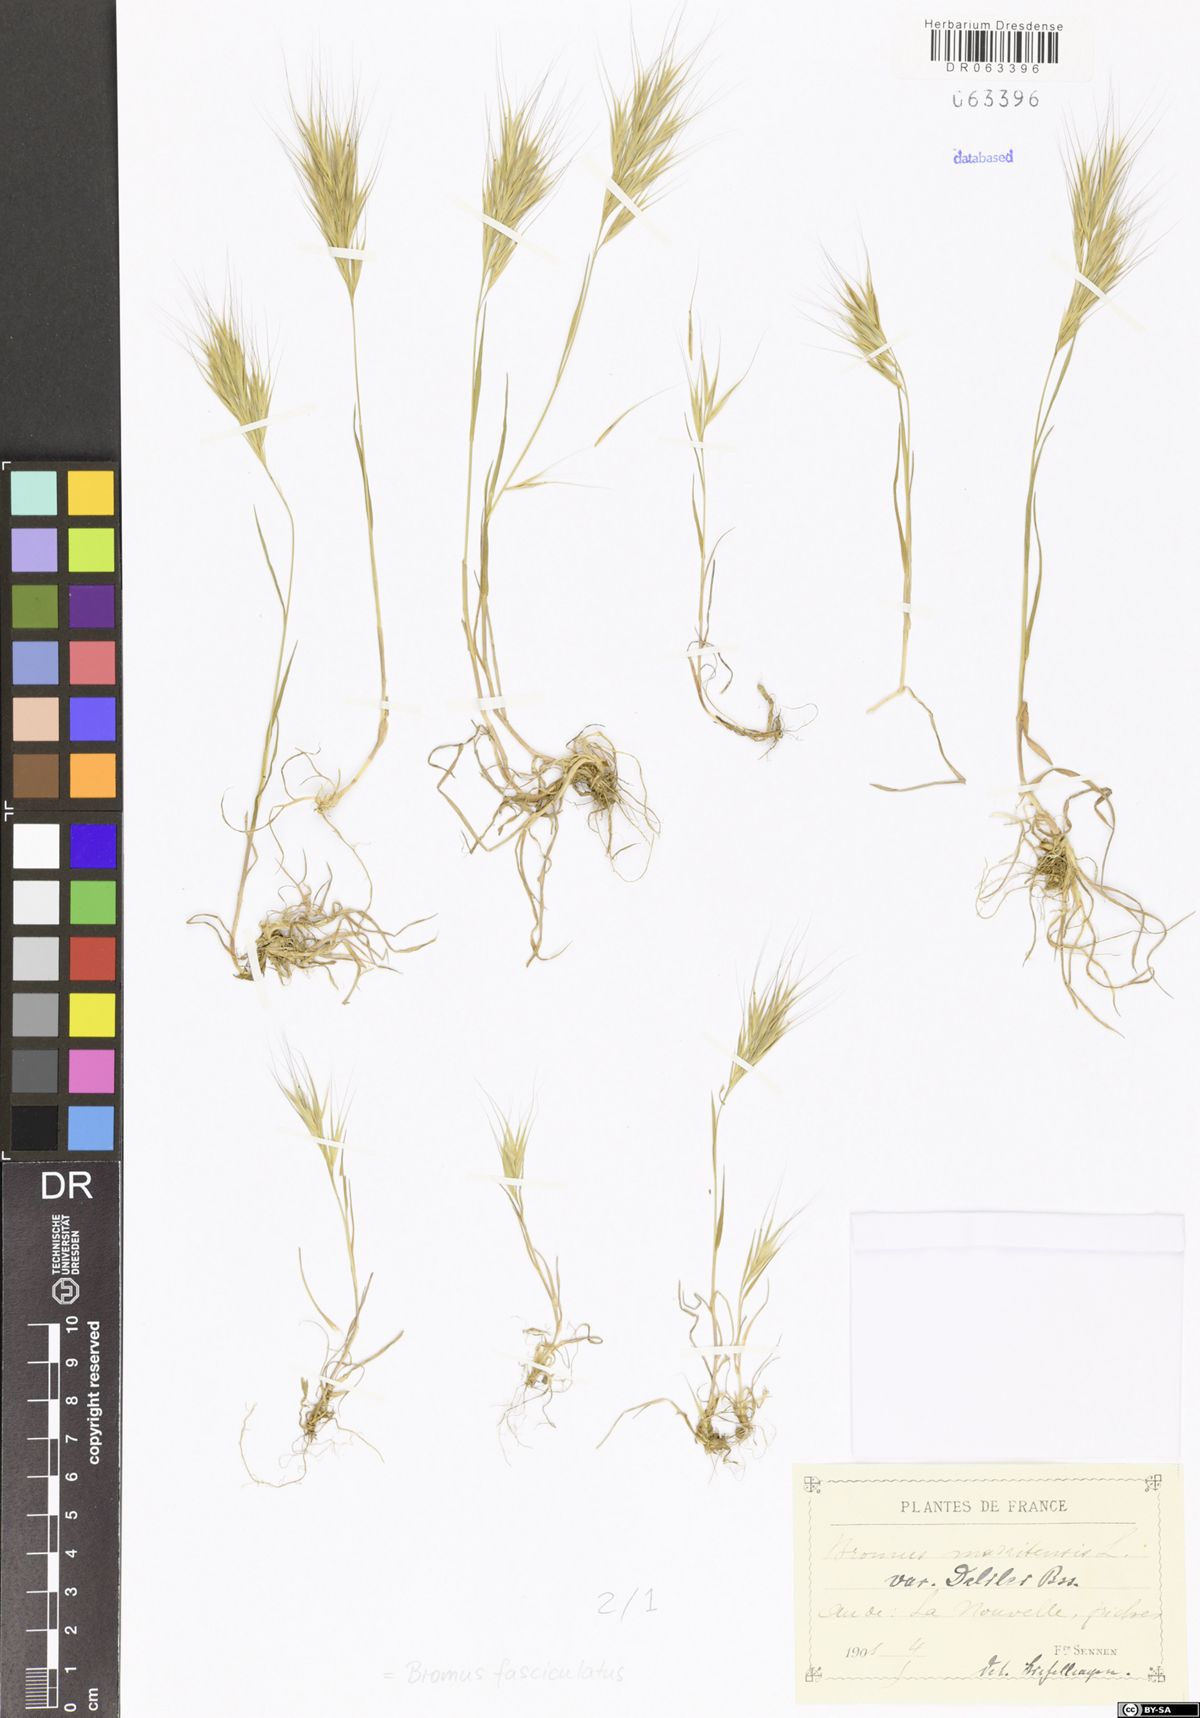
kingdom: Plantae
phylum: Tracheophyta
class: Liliopsida
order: Poales
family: Poaceae
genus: Bromus
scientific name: Bromus fasciculatus
